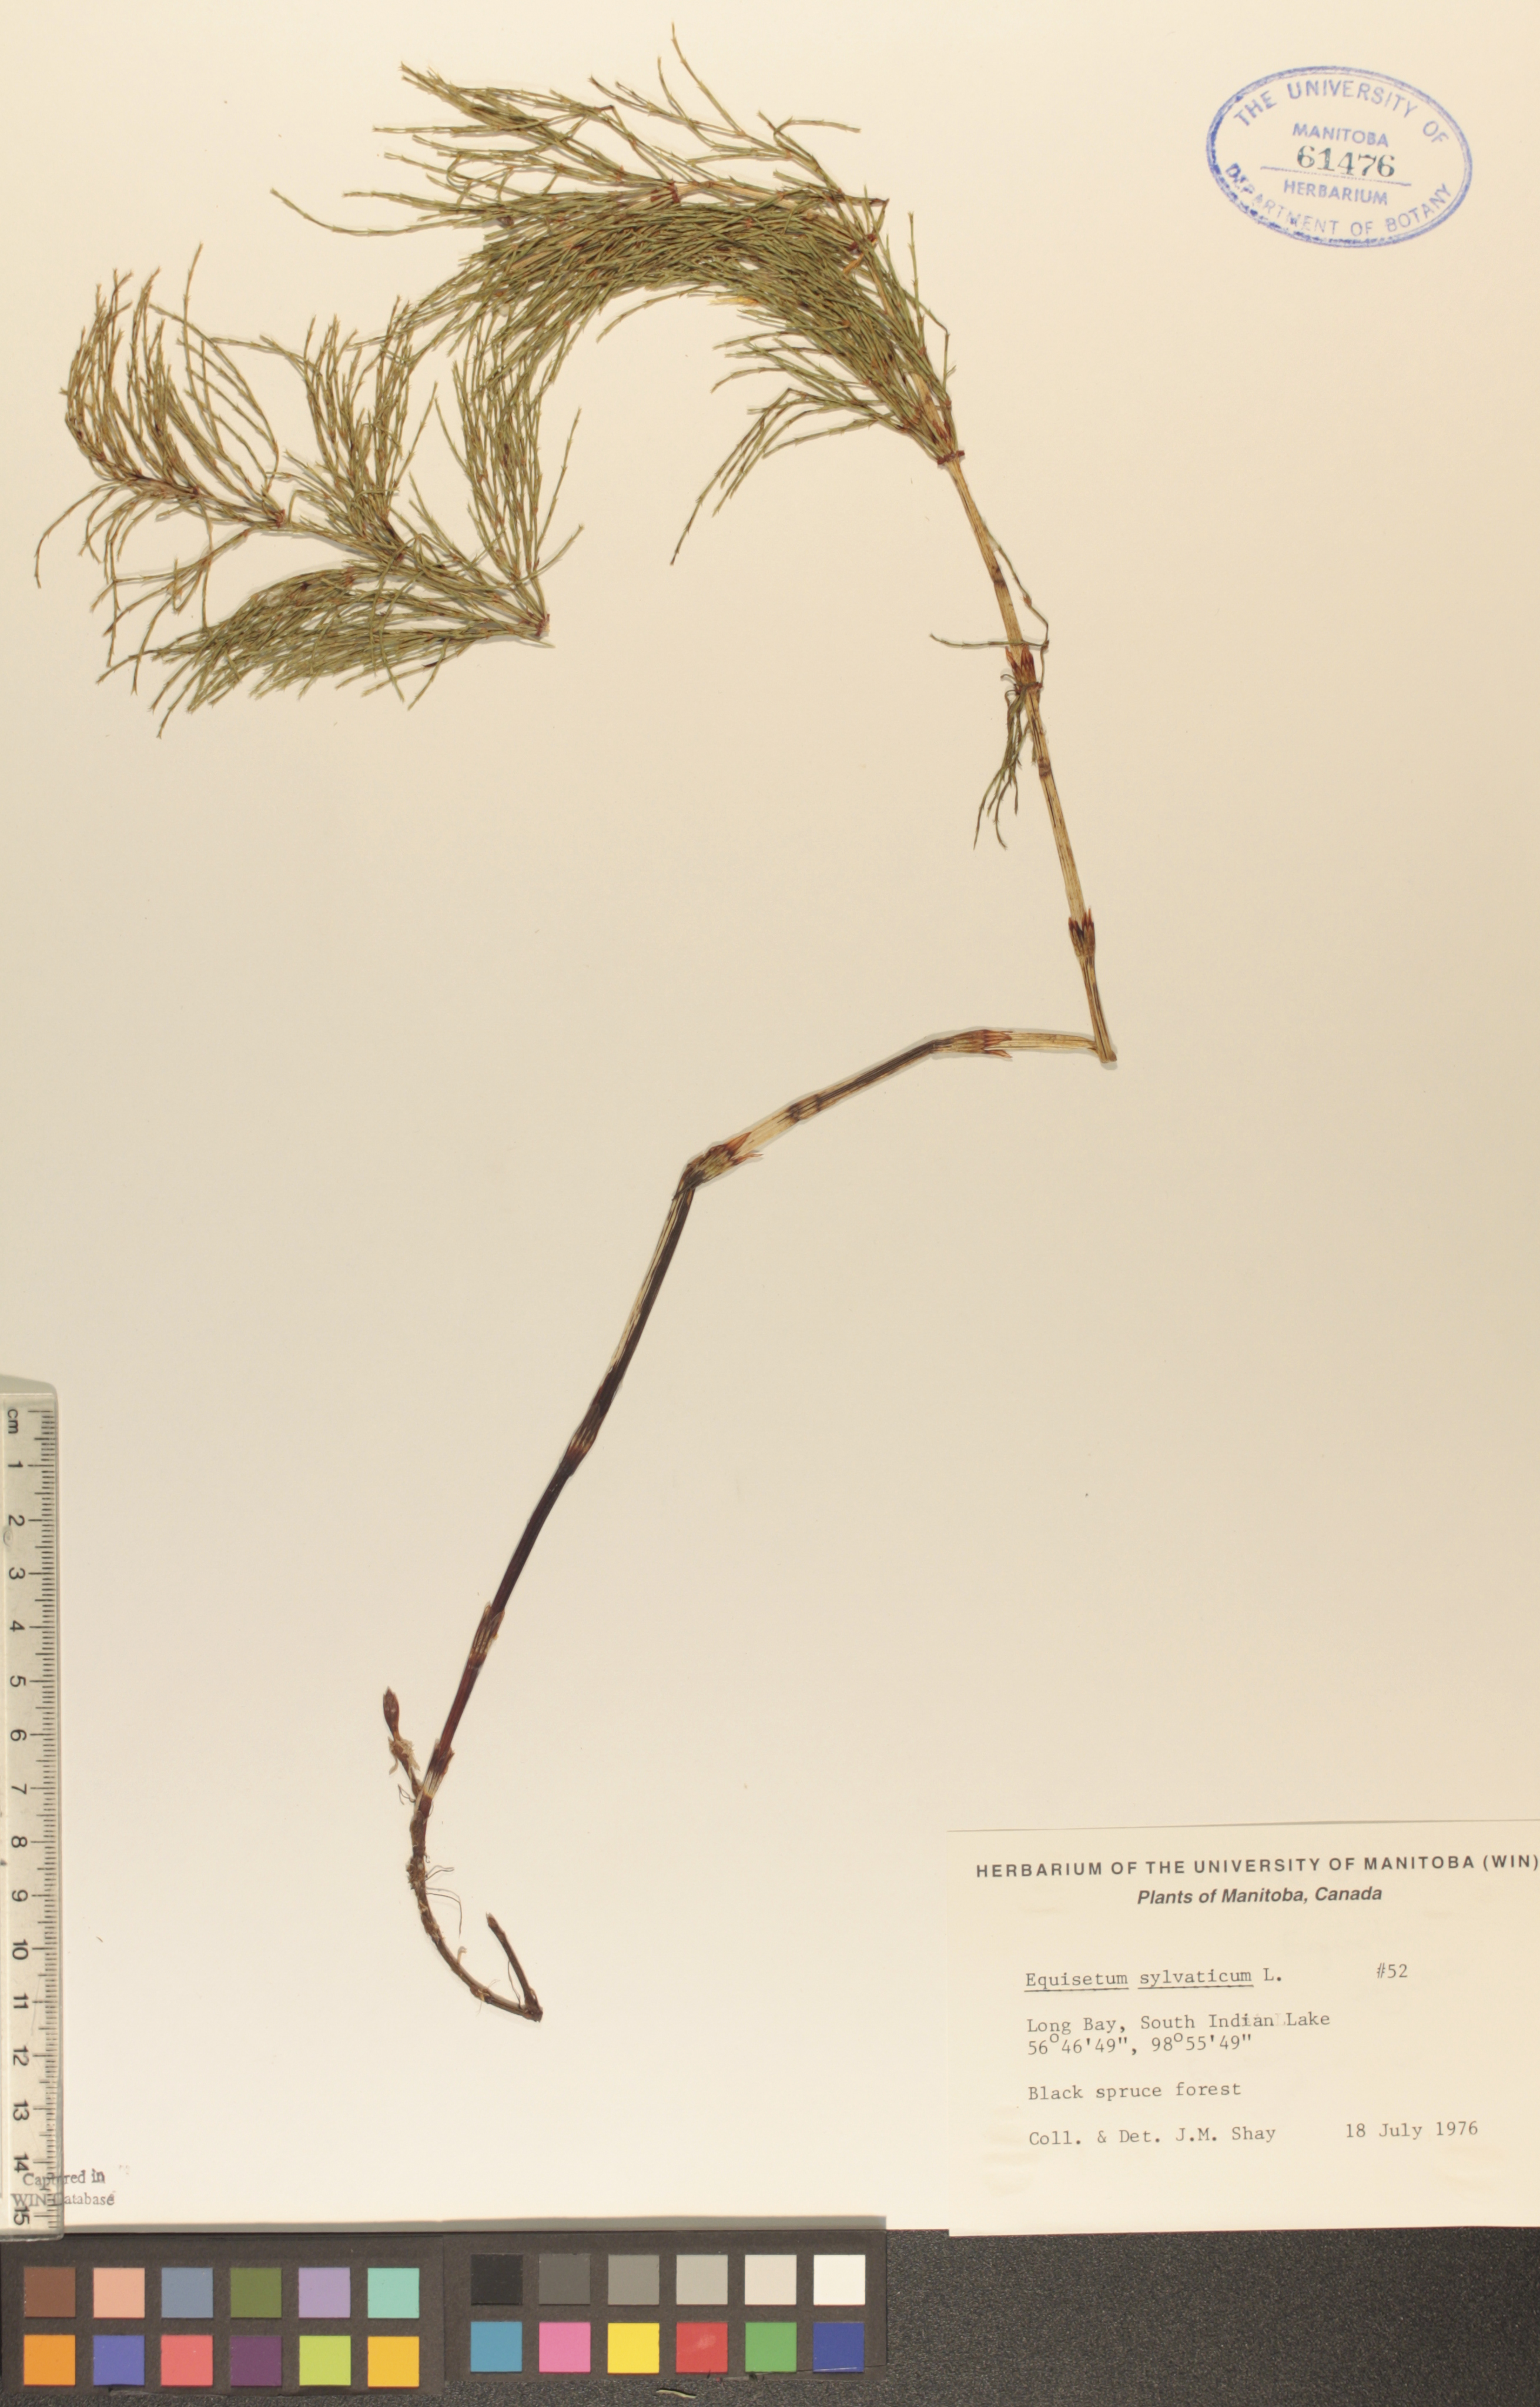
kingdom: Plantae
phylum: Tracheophyta
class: Polypodiopsida
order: Equisetales
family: Equisetaceae
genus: Equisetum
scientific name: Equisetum sylvaticum
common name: Wood horsetail
